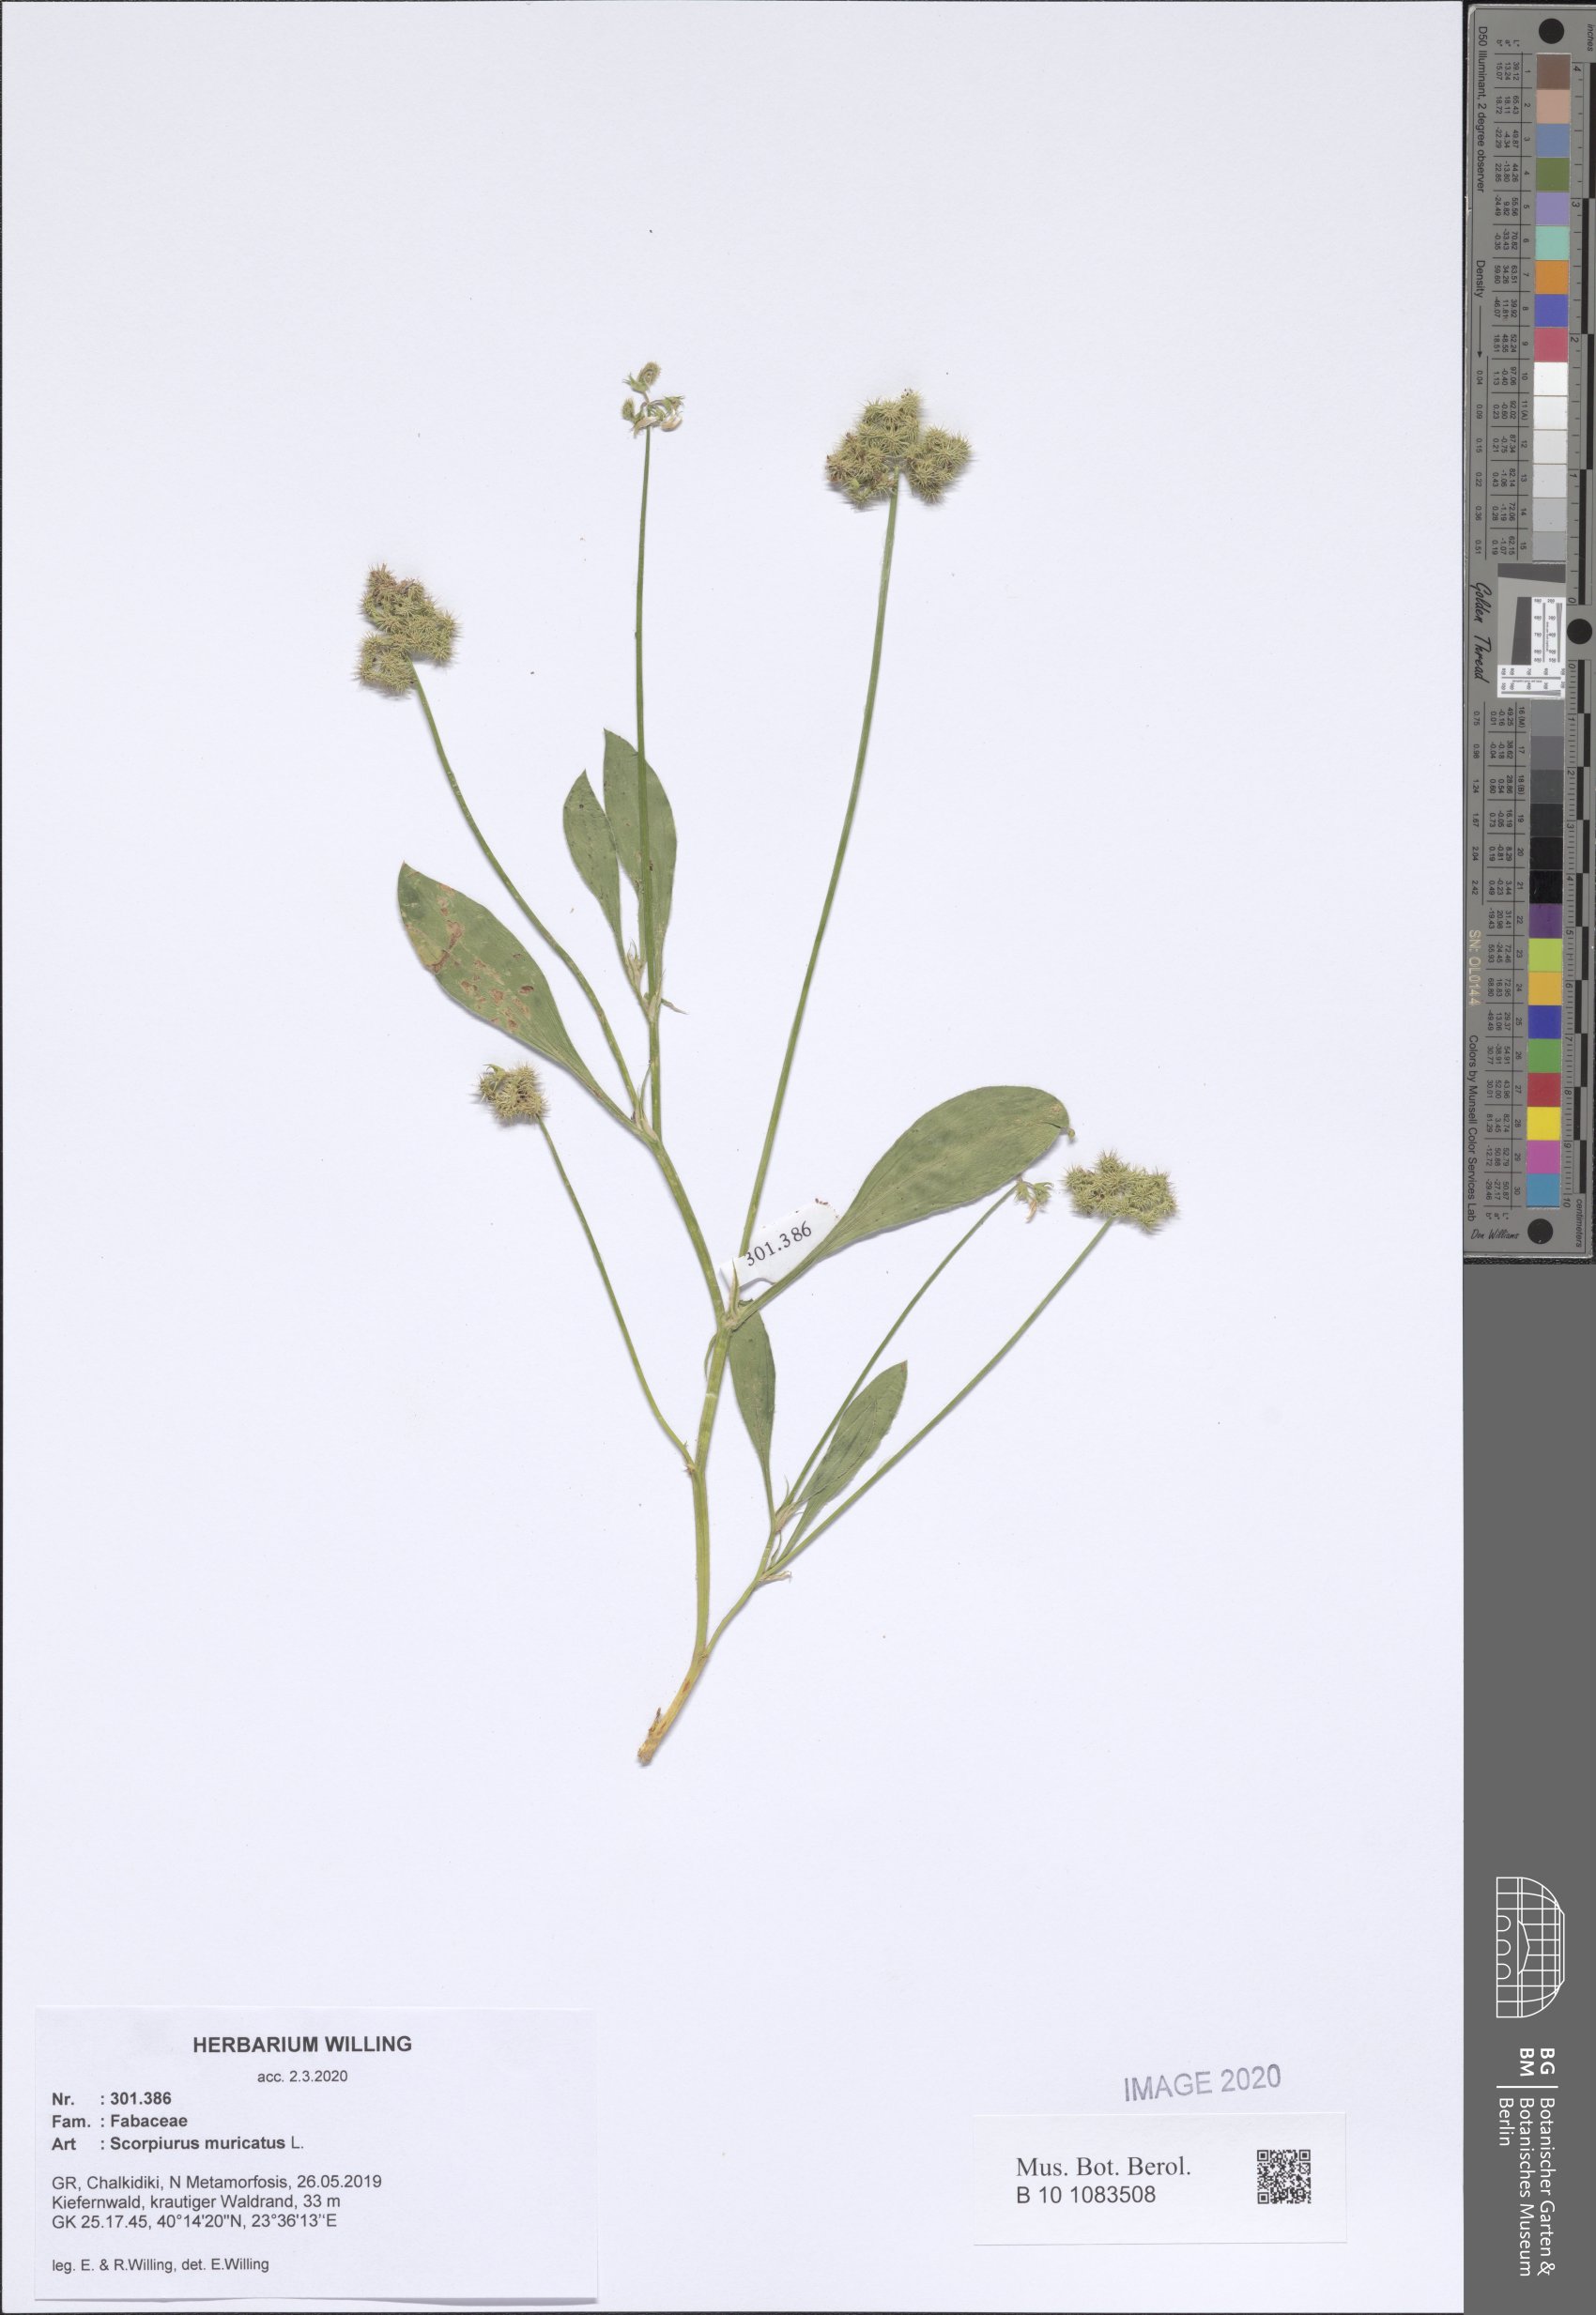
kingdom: Plantae
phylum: Tracheophyta
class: Magnoliopsida
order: Fabales
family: Fabaceae
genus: Scorpiurus
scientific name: Scorpiurus muricatus
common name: Caterpillar-plant
